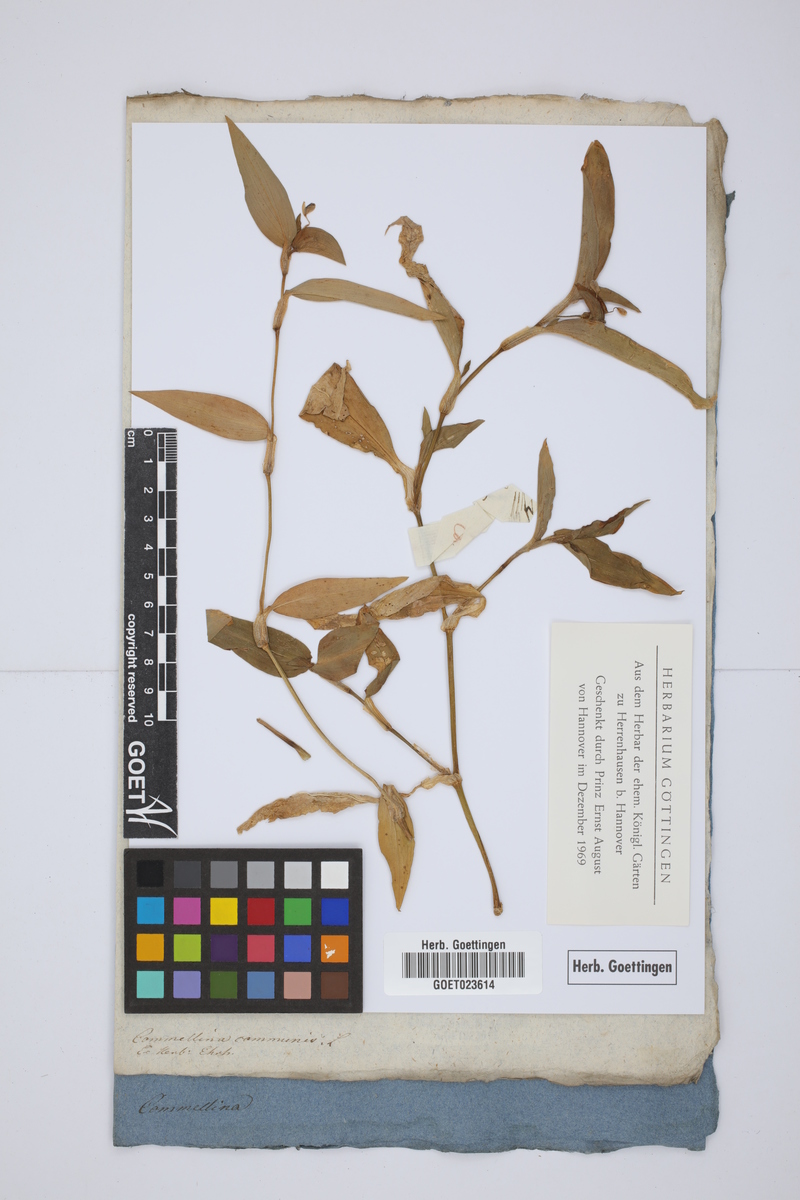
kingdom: Plantae
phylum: Tracheophyta
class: Liliopsida
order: Commelinales
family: Commelinaceae
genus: Commelina
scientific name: Commelina communis
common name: Asiatic dayflower
